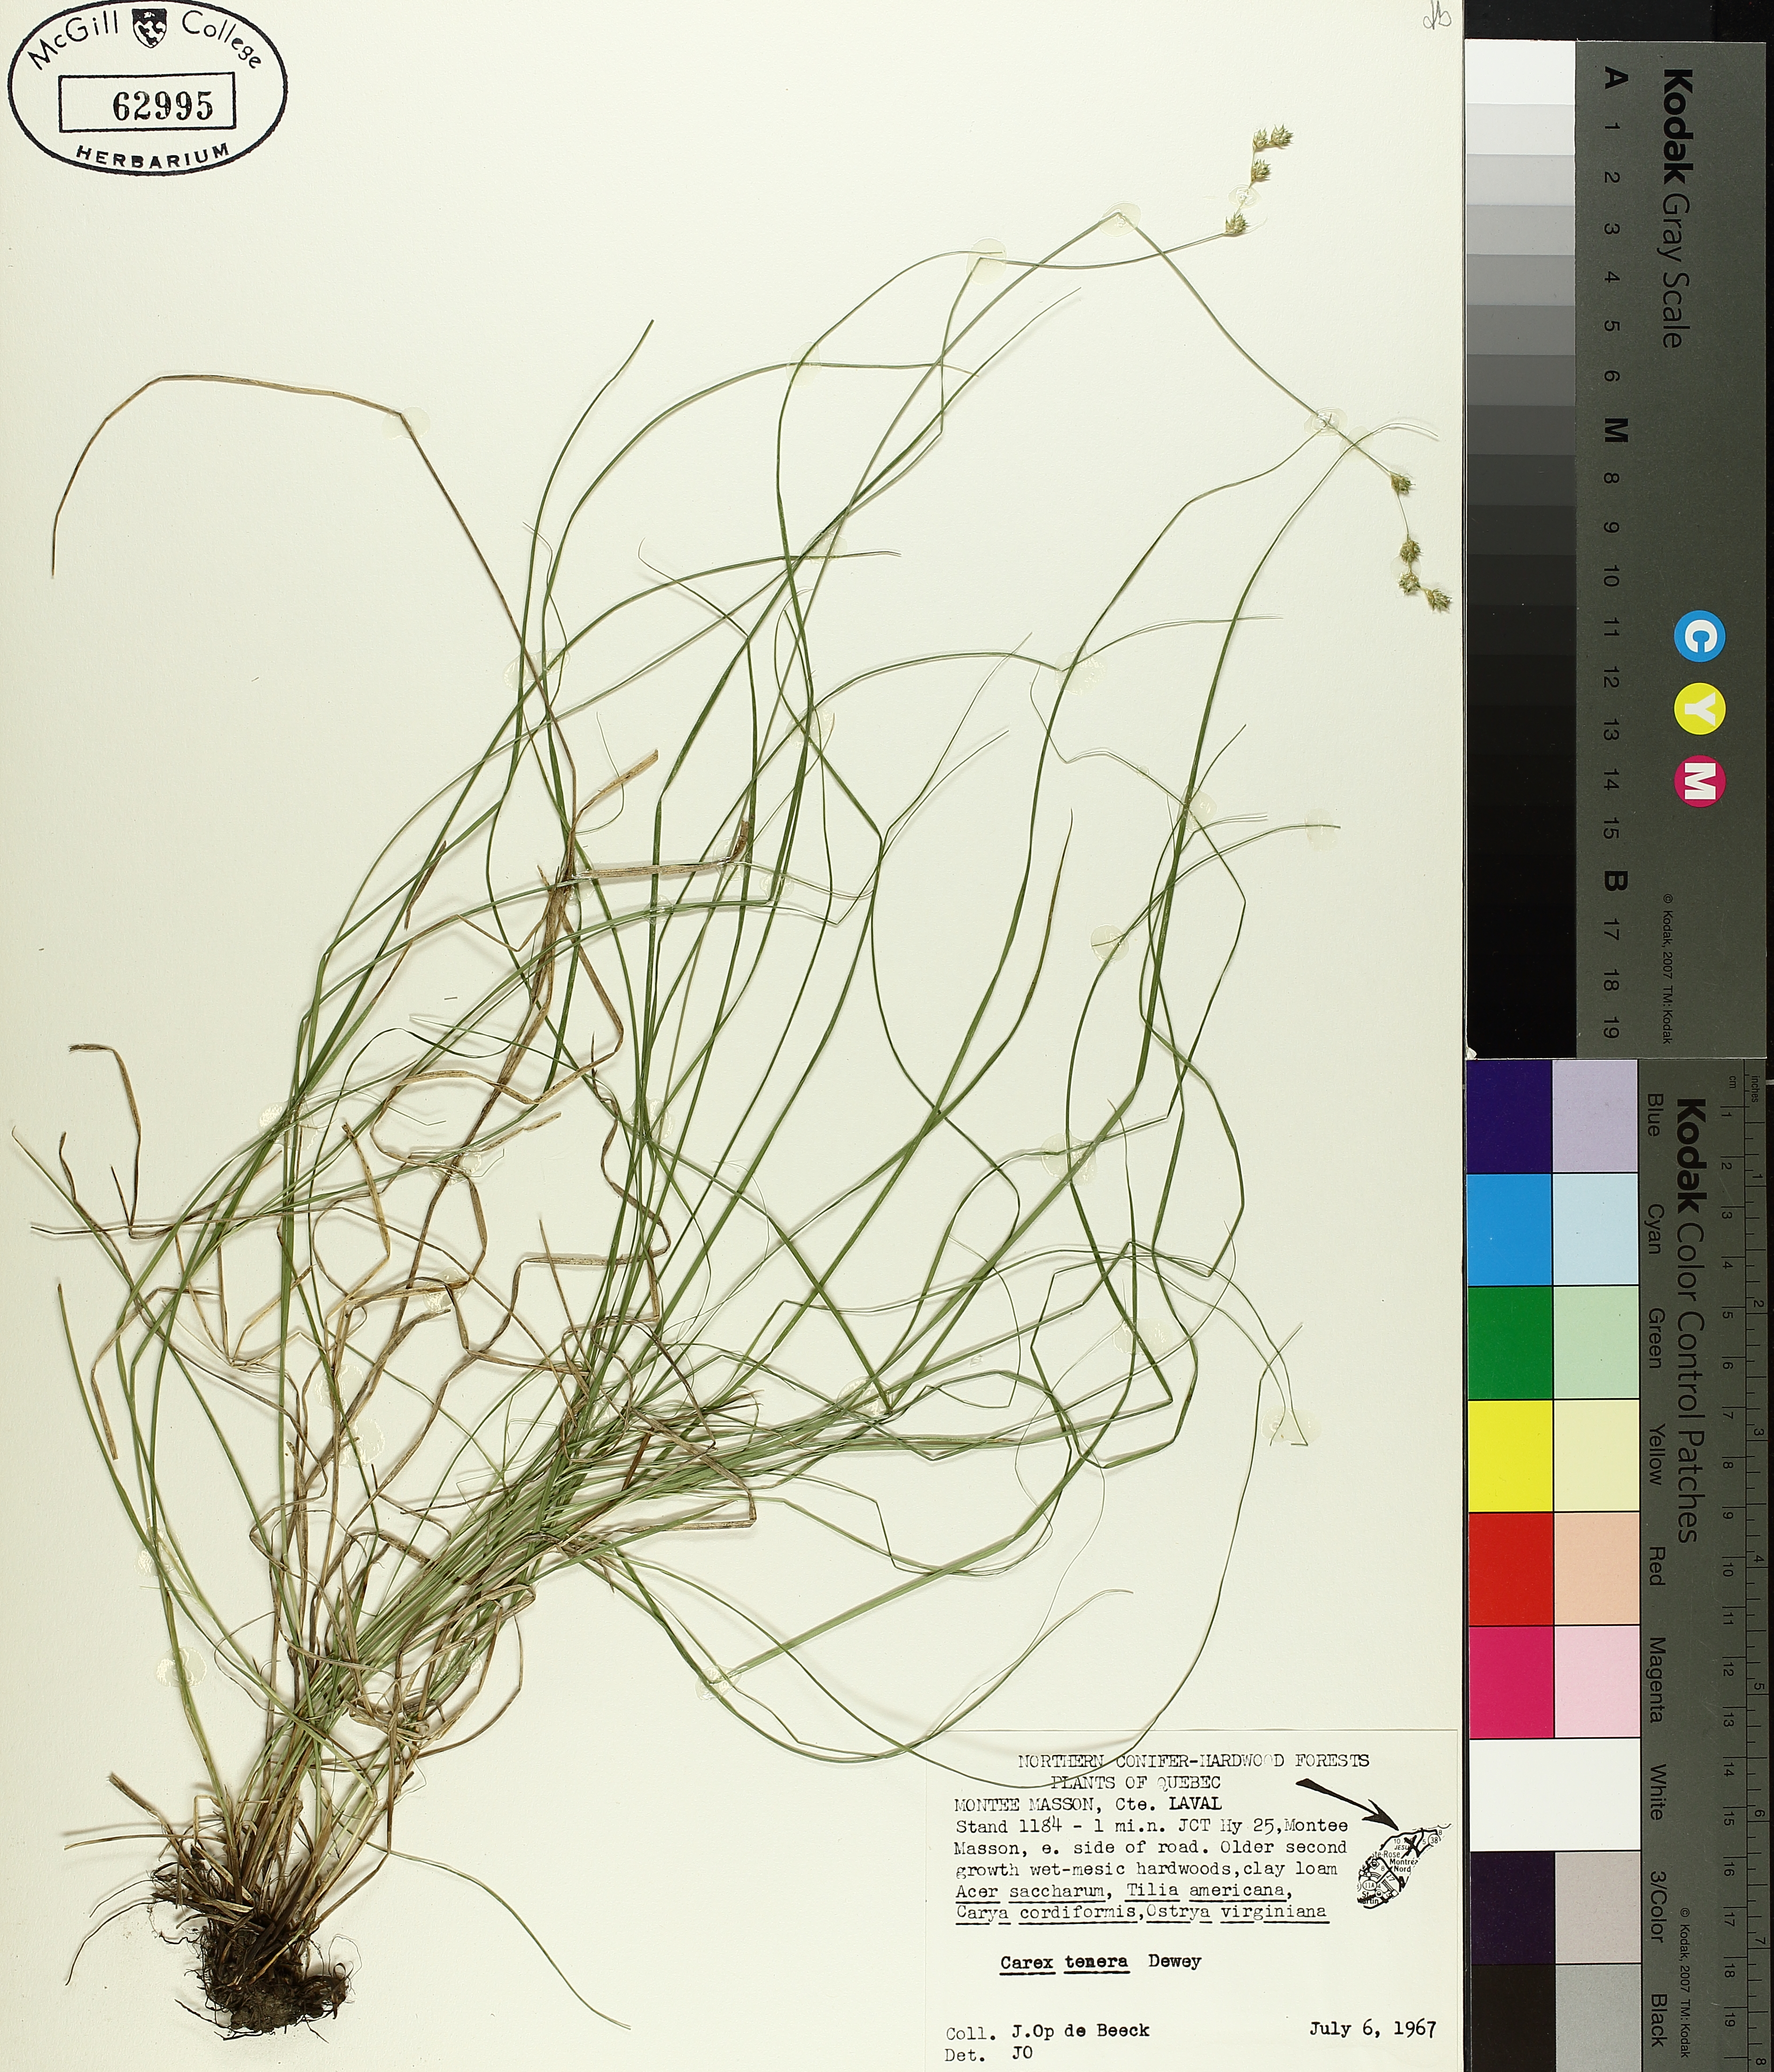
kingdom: Plantae
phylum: Tracheophyta
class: Liliopsida
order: Poales
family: Cyperaceae
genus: Carex
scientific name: Carex tenera
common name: Broad-fruited sedge
